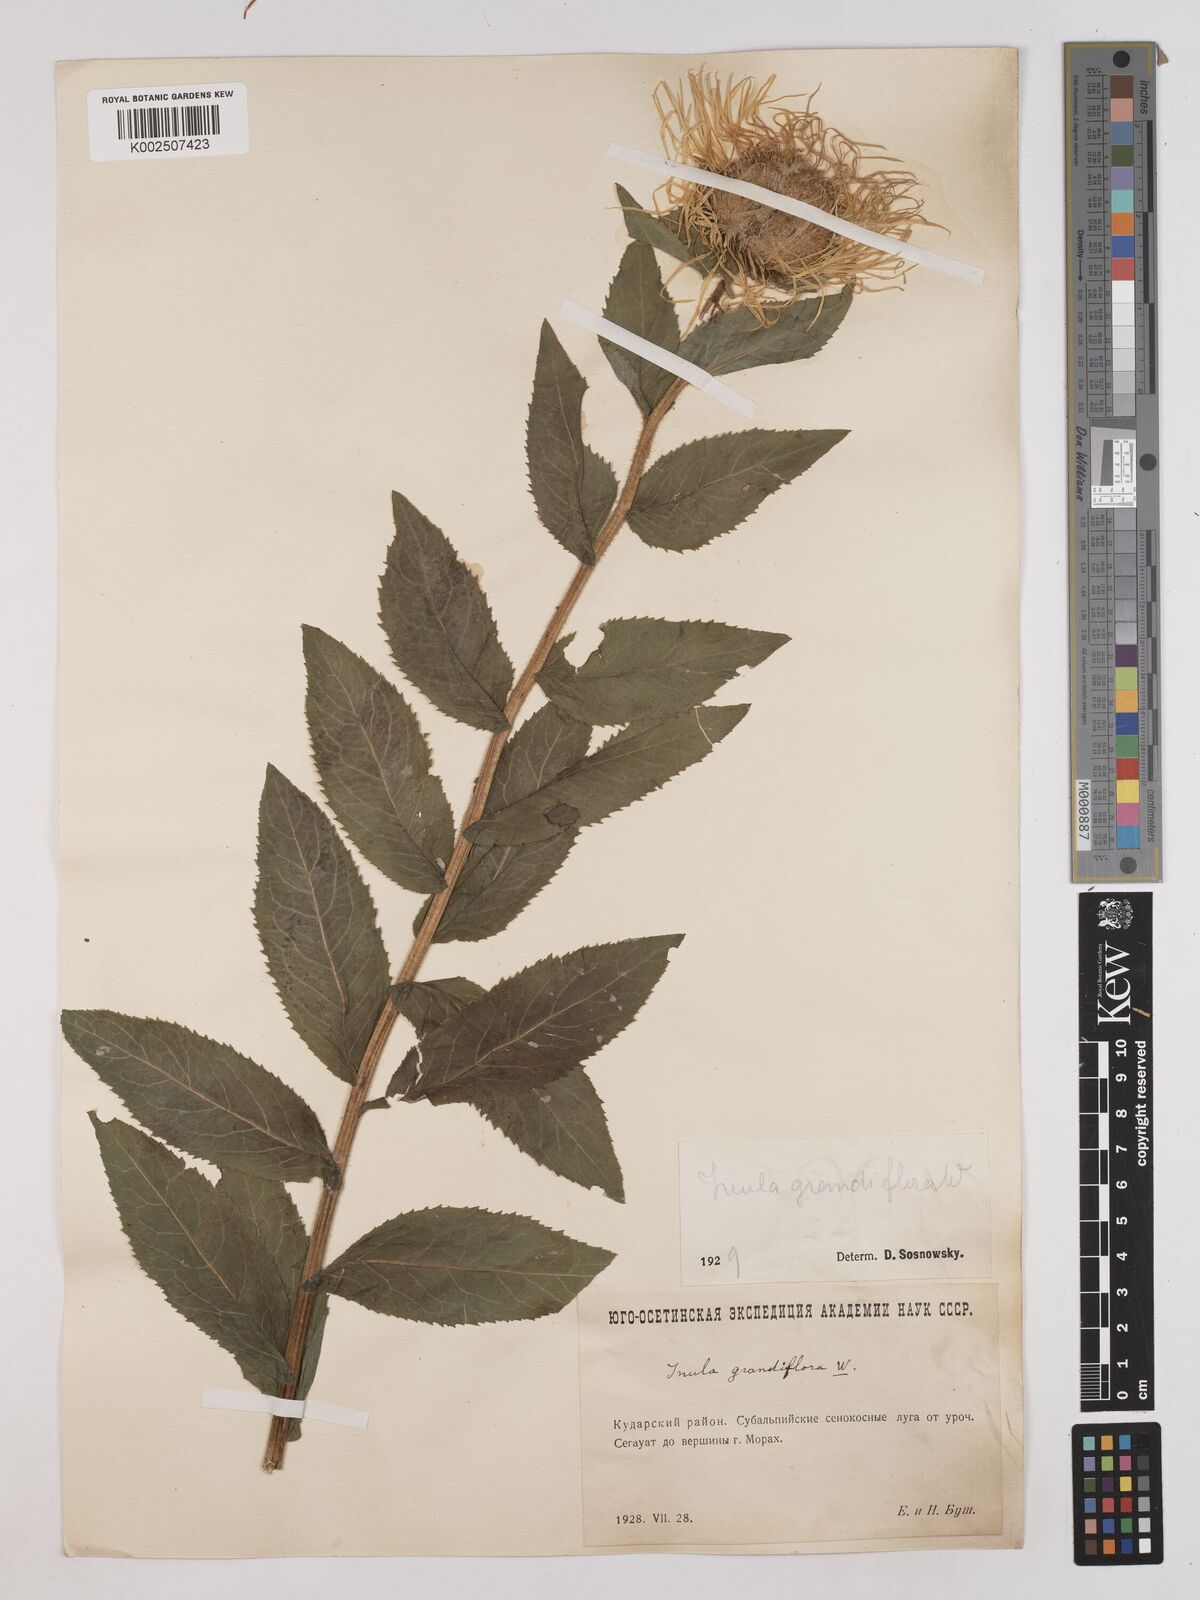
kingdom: Plantae
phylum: Tracheophyta
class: Magnoliopsida
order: Asterales
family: Asteraceae
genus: Pentanema
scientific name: Pentanema orientale
